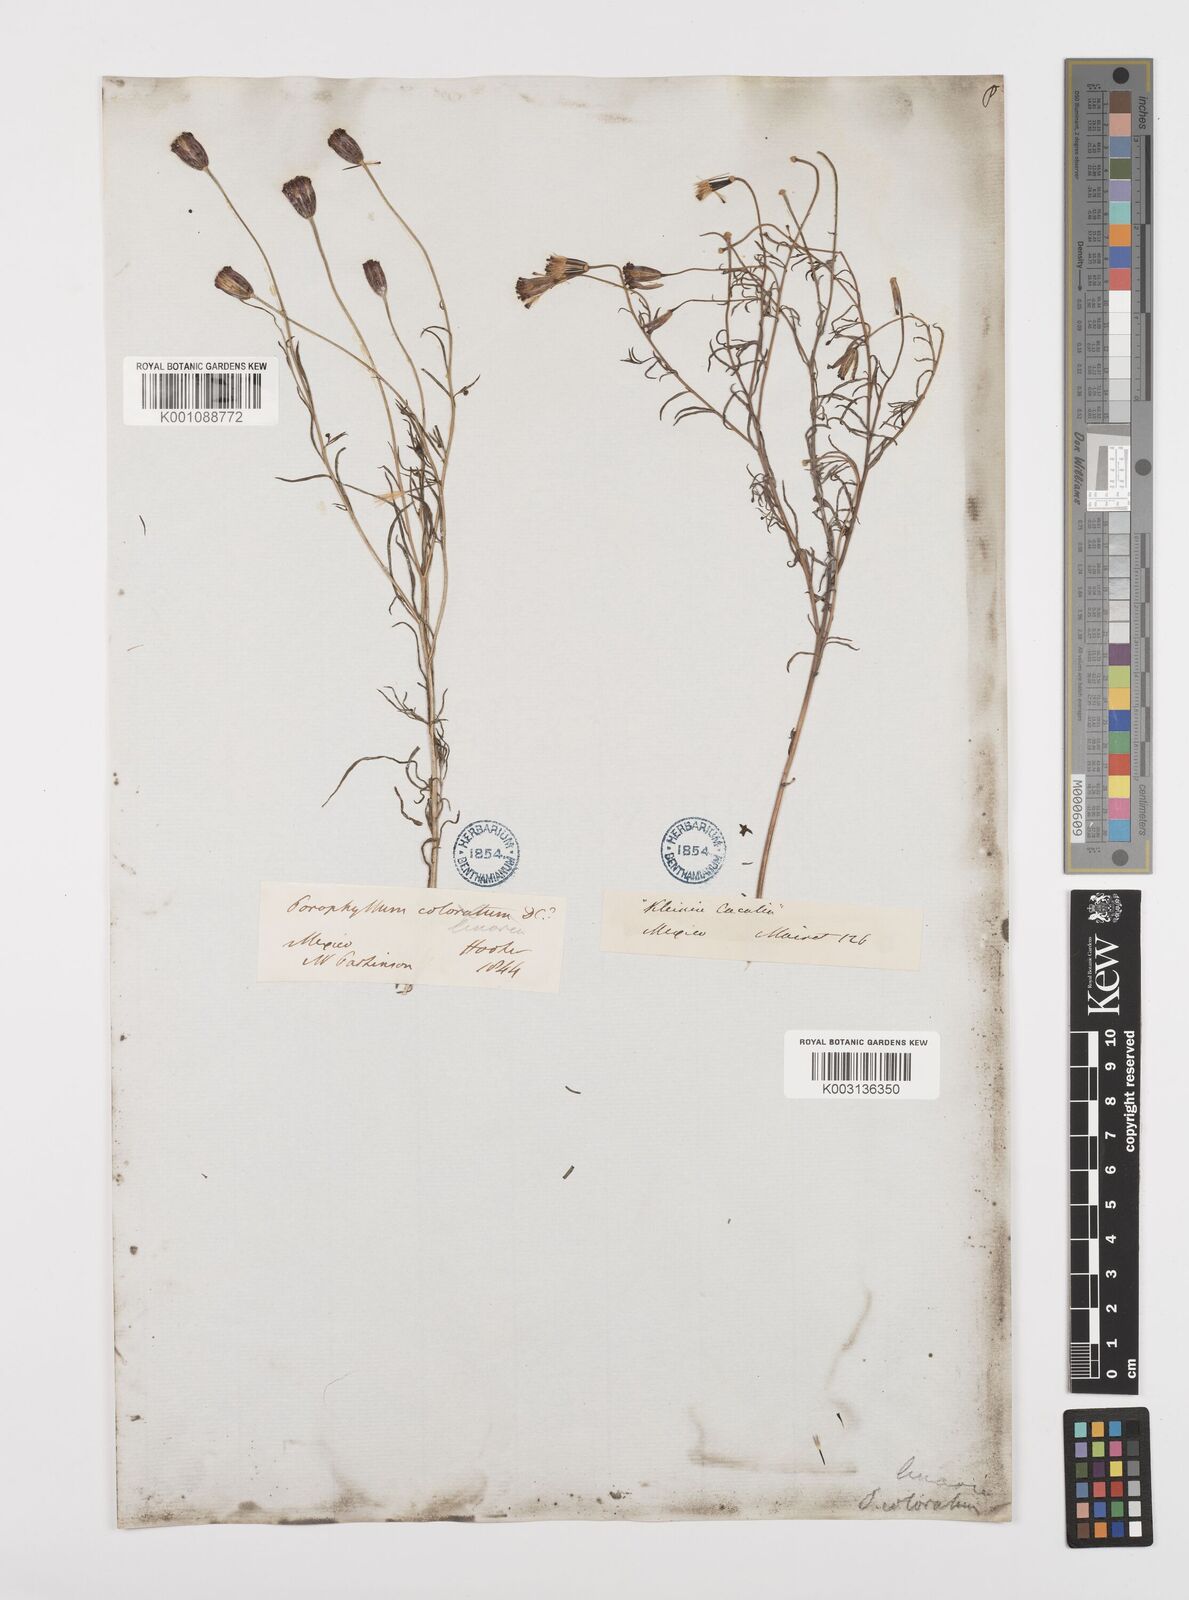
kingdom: Plantae
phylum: Tracheophyta
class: Magnoliopsida
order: Asterales
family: Asteraceae
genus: Porophyllum
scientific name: Porophyllum linaria
